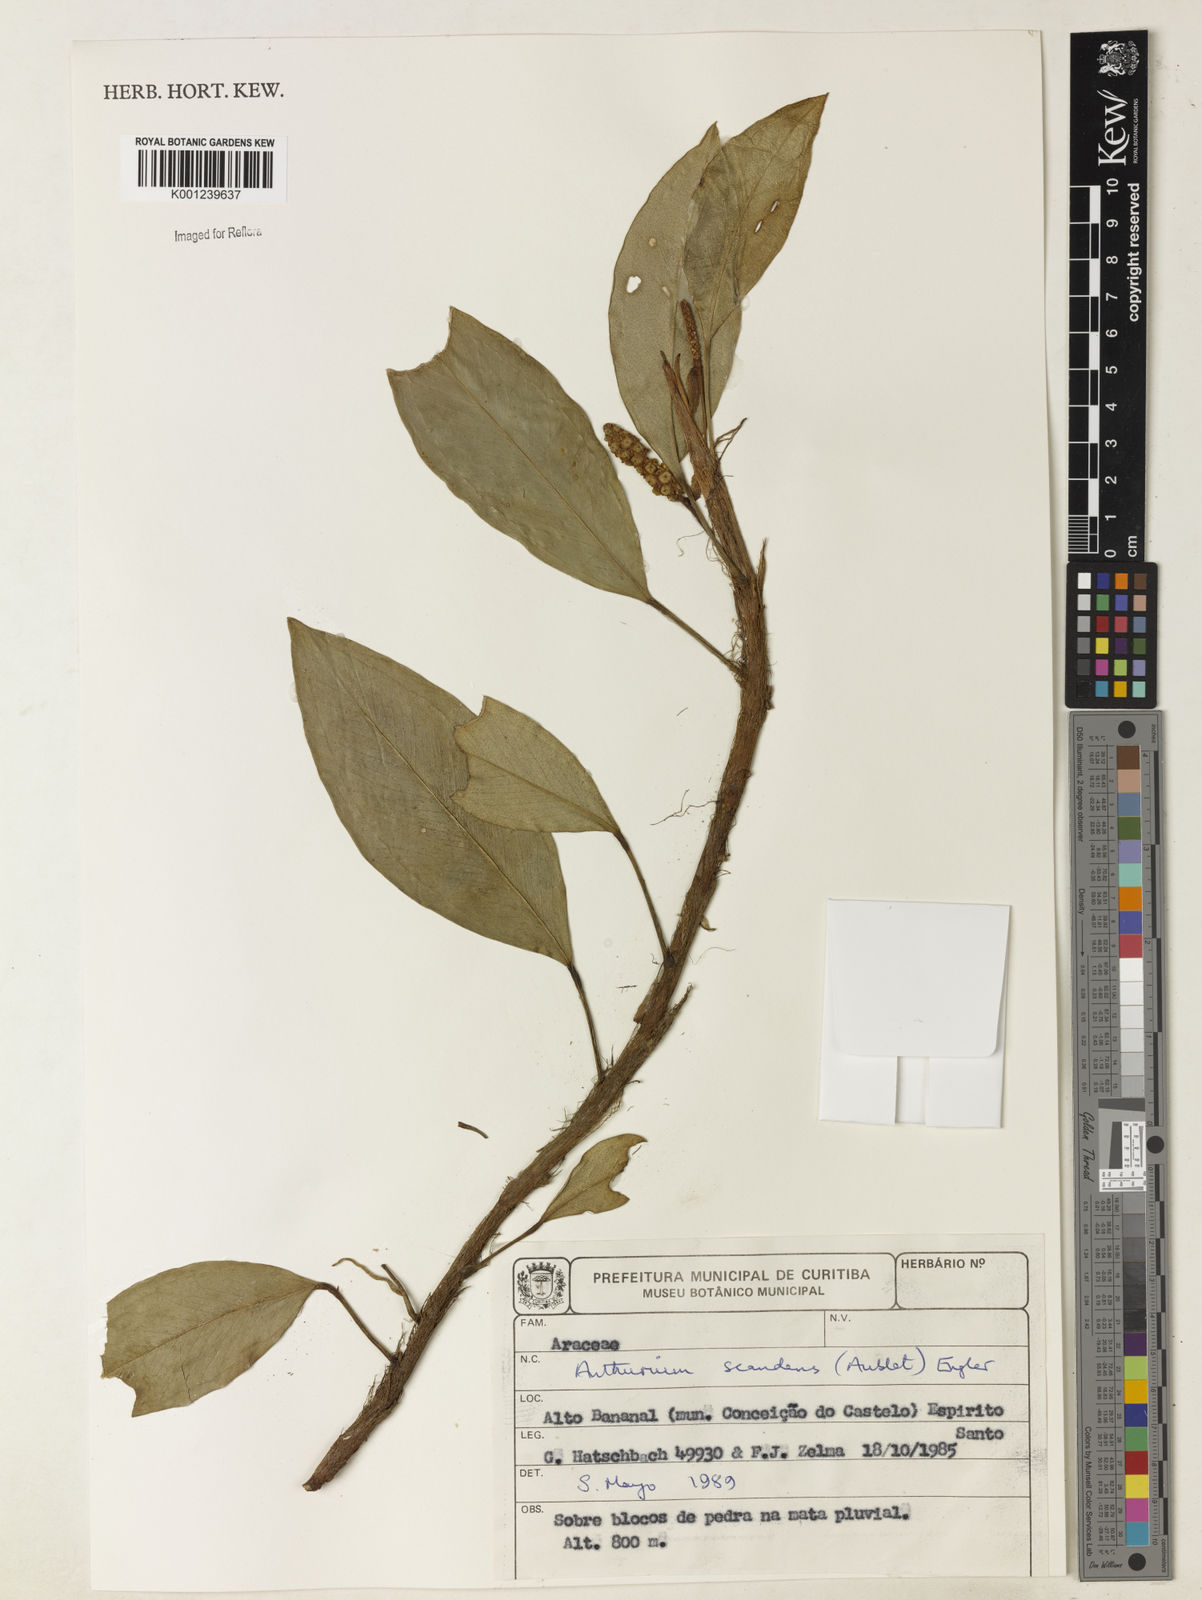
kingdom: Plantae
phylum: Tracheophyta
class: Liliopsida
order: Alismatales
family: Araceae
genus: Anthurium
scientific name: Anthurium scandens
